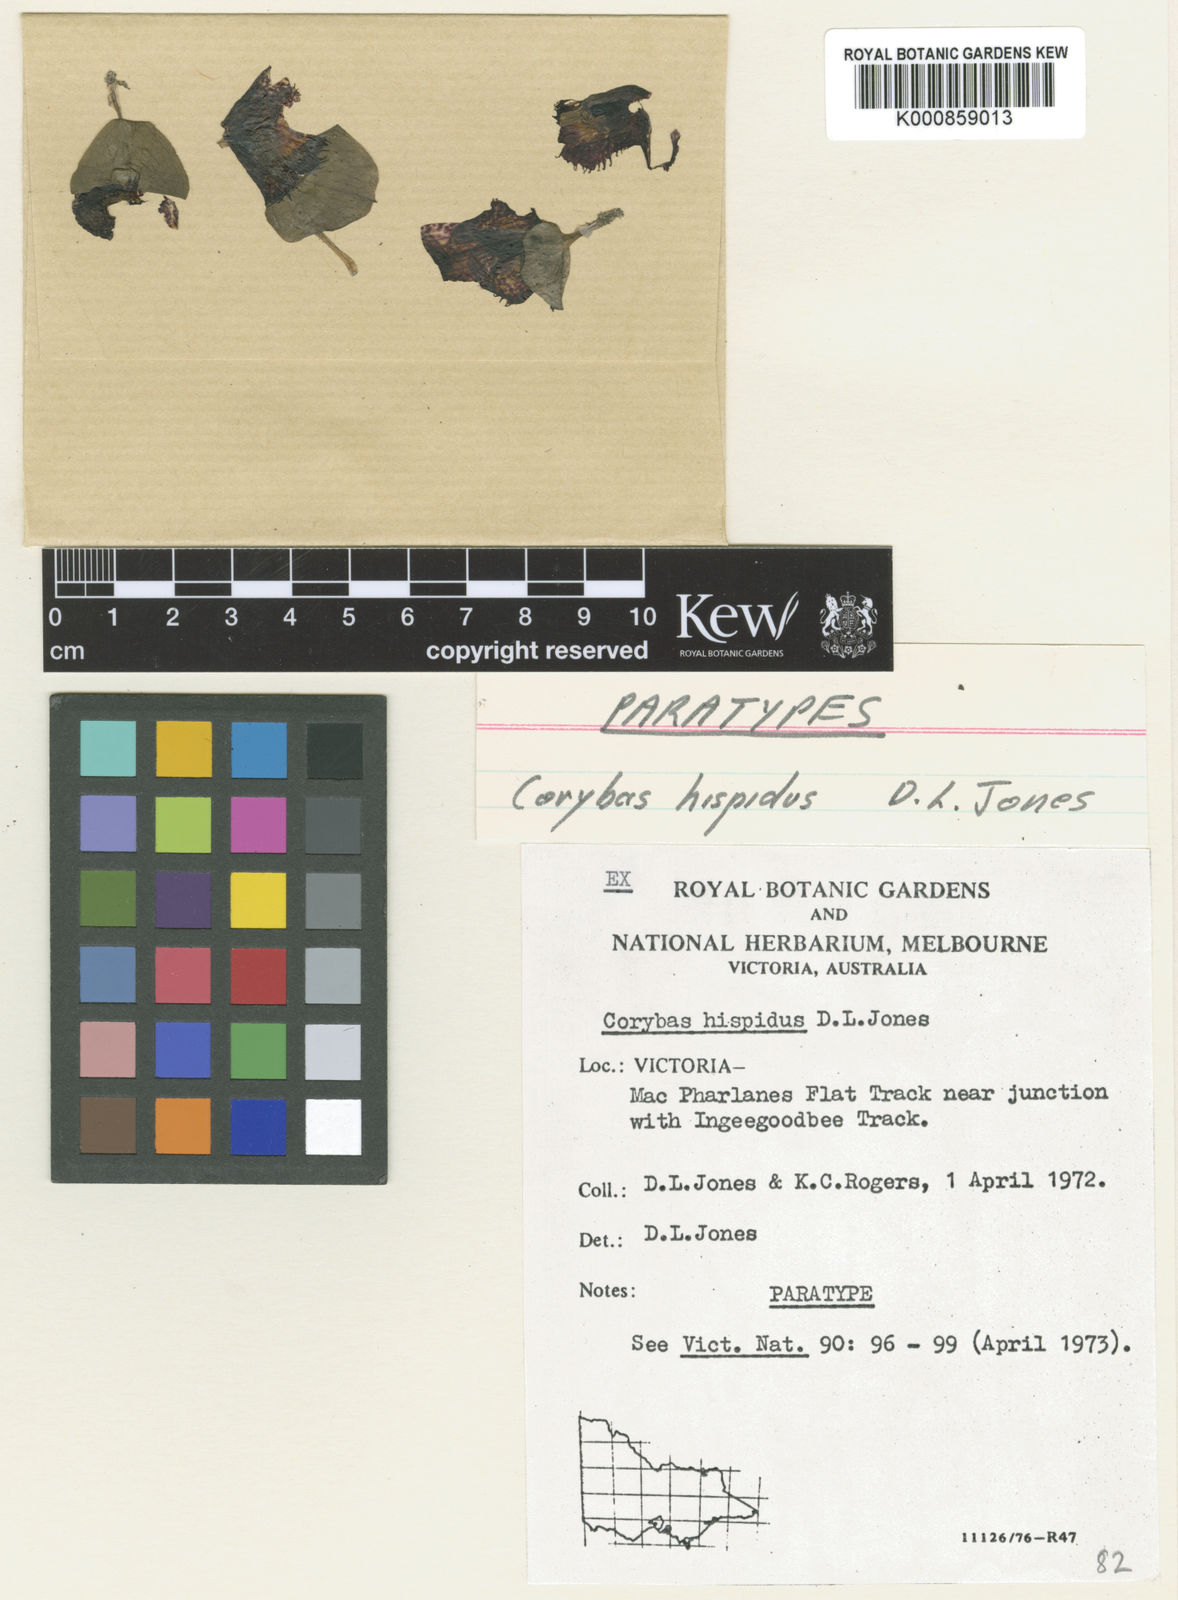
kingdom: Plantae
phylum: Tracheophyta
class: Liliopsida
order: Asparagales
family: Orchidaceae
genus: Corybas
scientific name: Corybas hispidus
